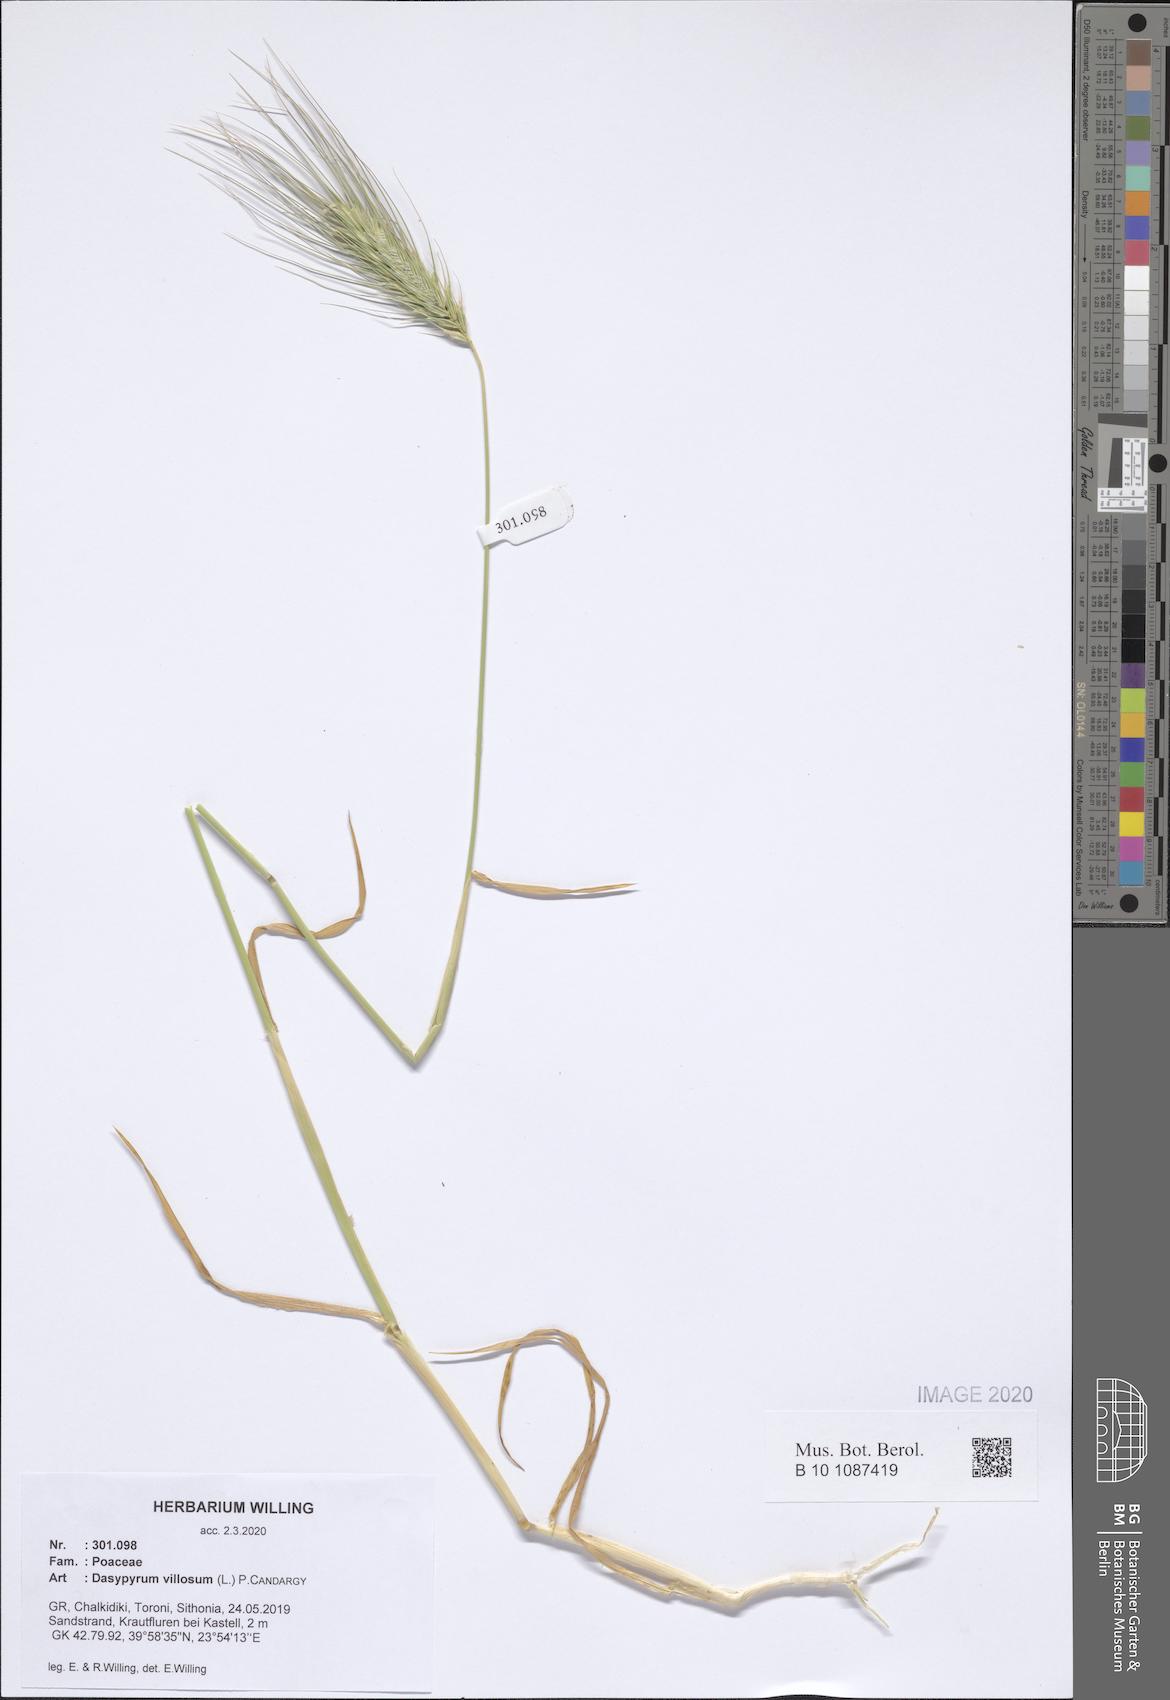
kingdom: Plantae
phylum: Tracheophyta
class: Liliopsida
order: Poales
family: Poaceae
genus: Dasypyrum
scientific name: Dasypyrum villosum
